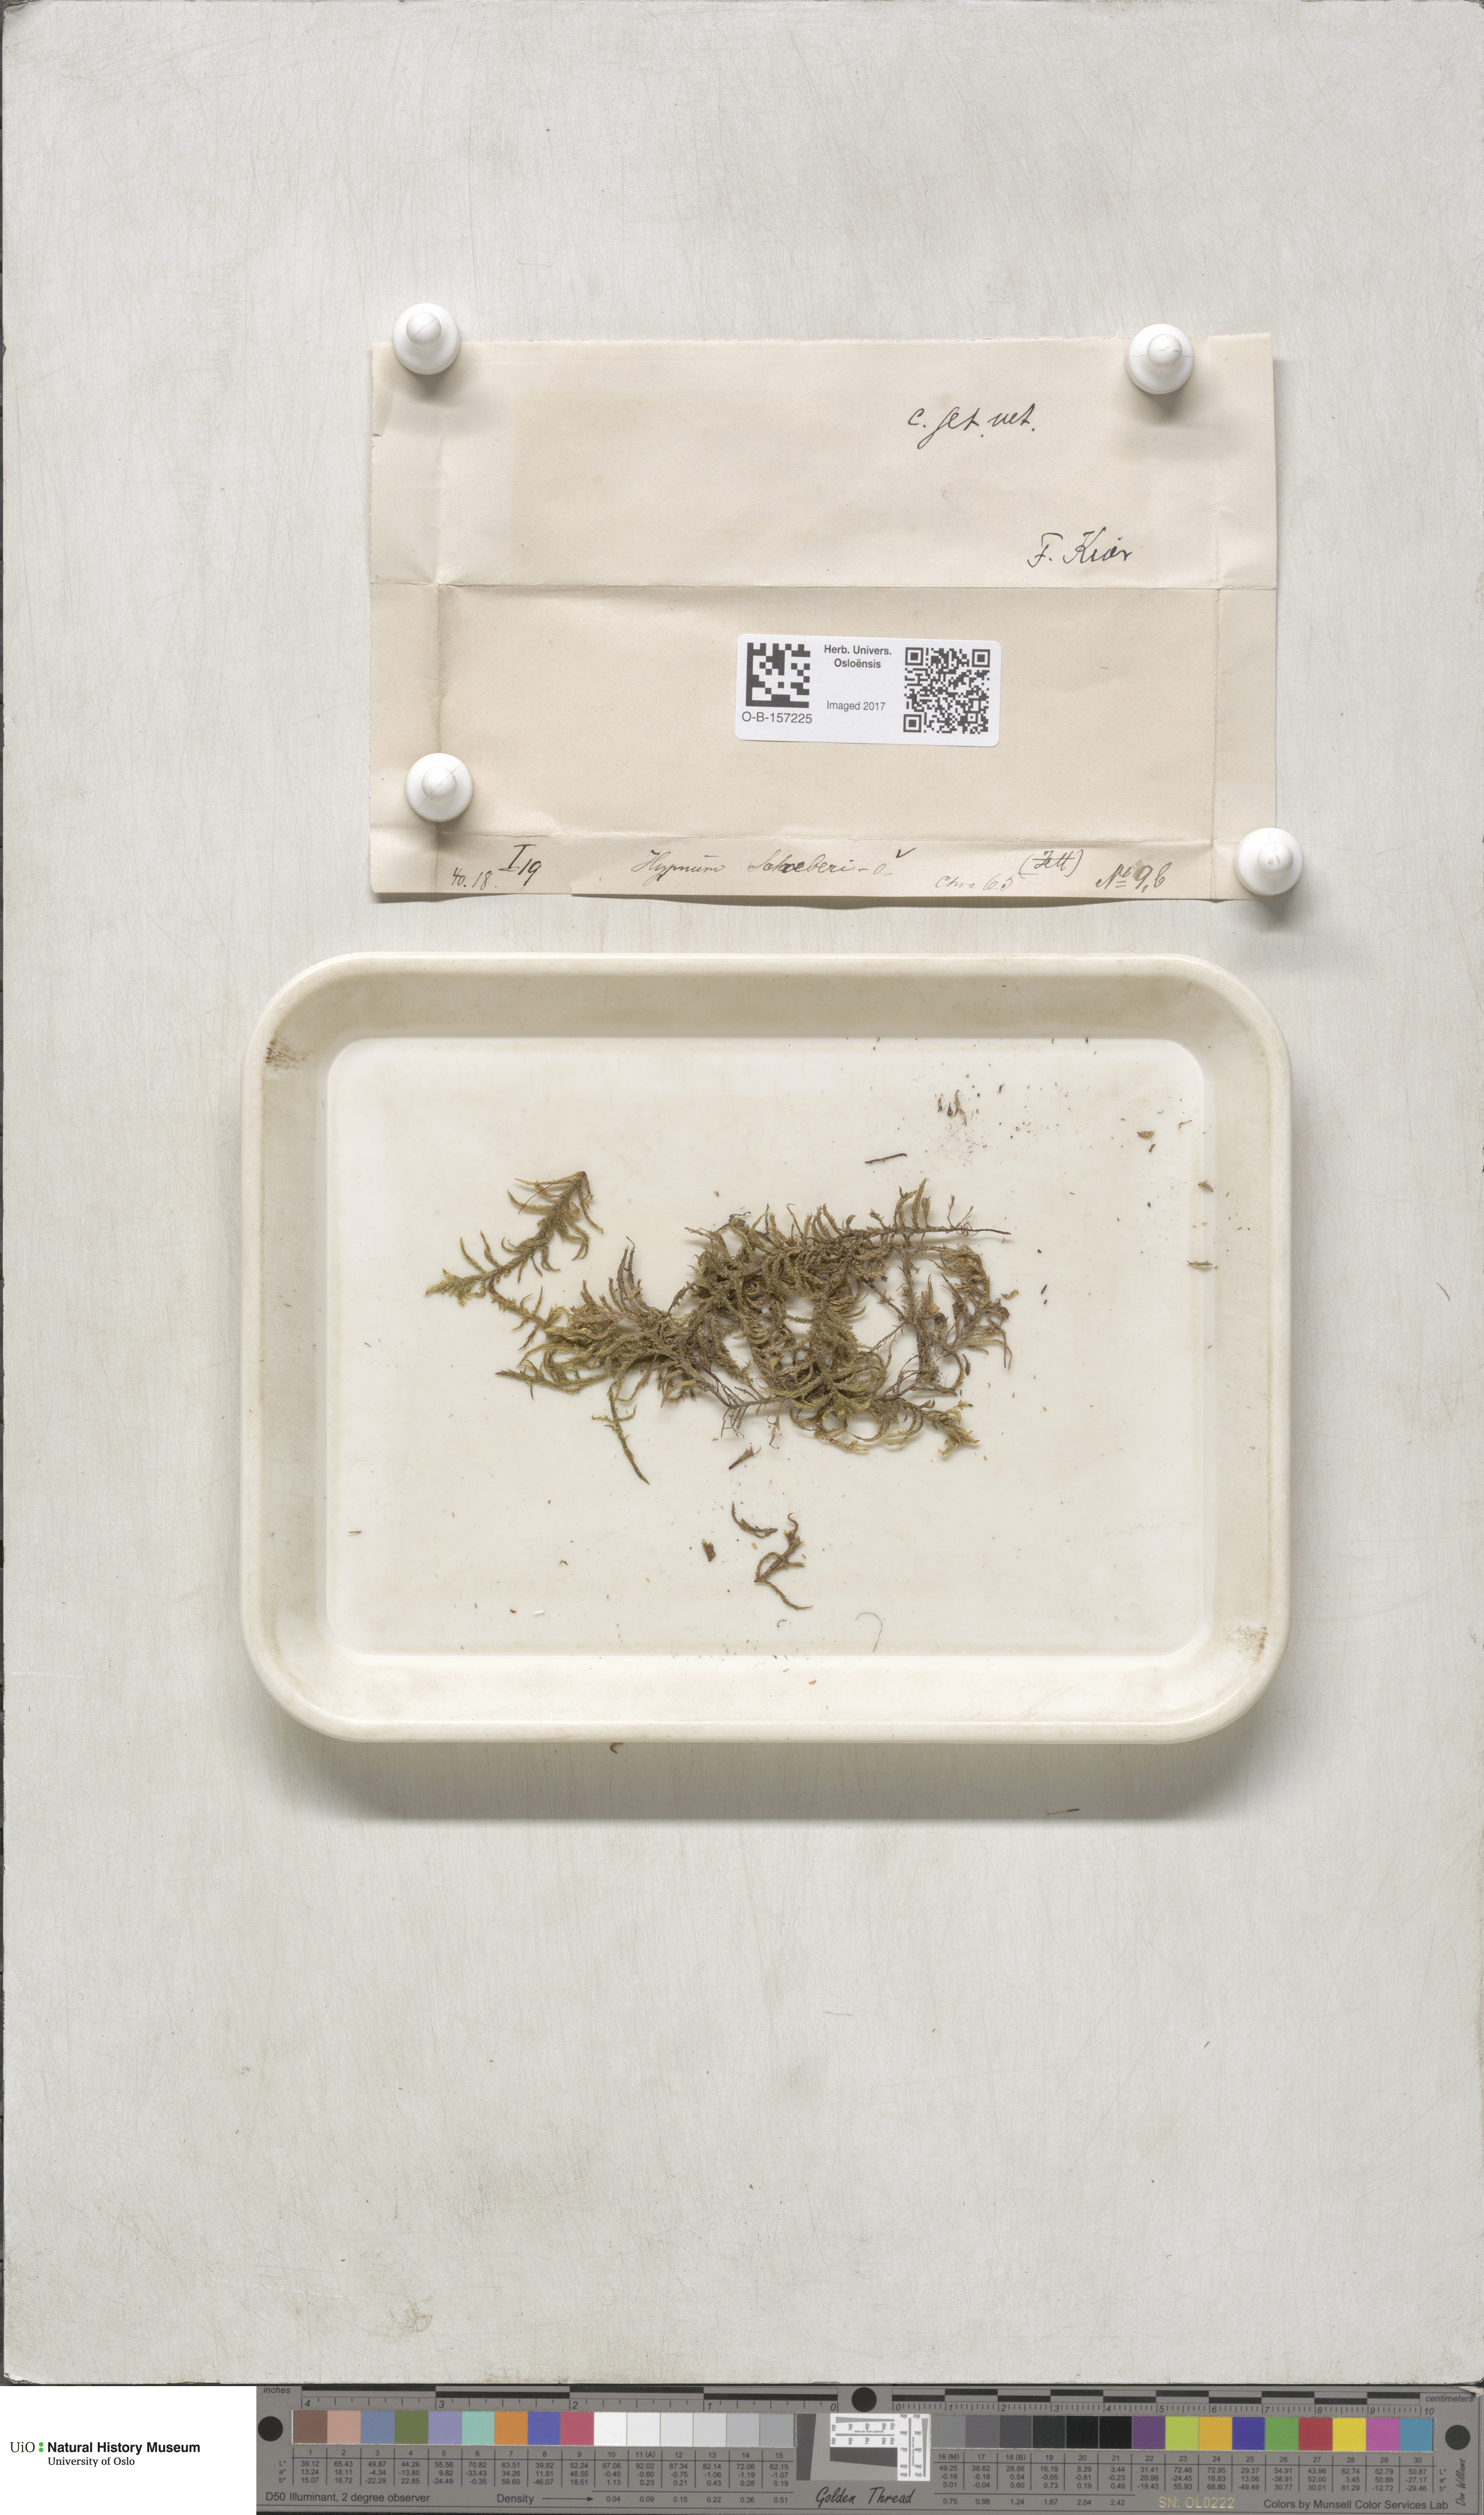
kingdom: Plantae
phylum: Bryophyta
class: Bryopsida
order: Hypnales
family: Hylocomiaceae
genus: Pleurozium
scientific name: Pleurozium schreberi
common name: Red-stemmed feather moss
